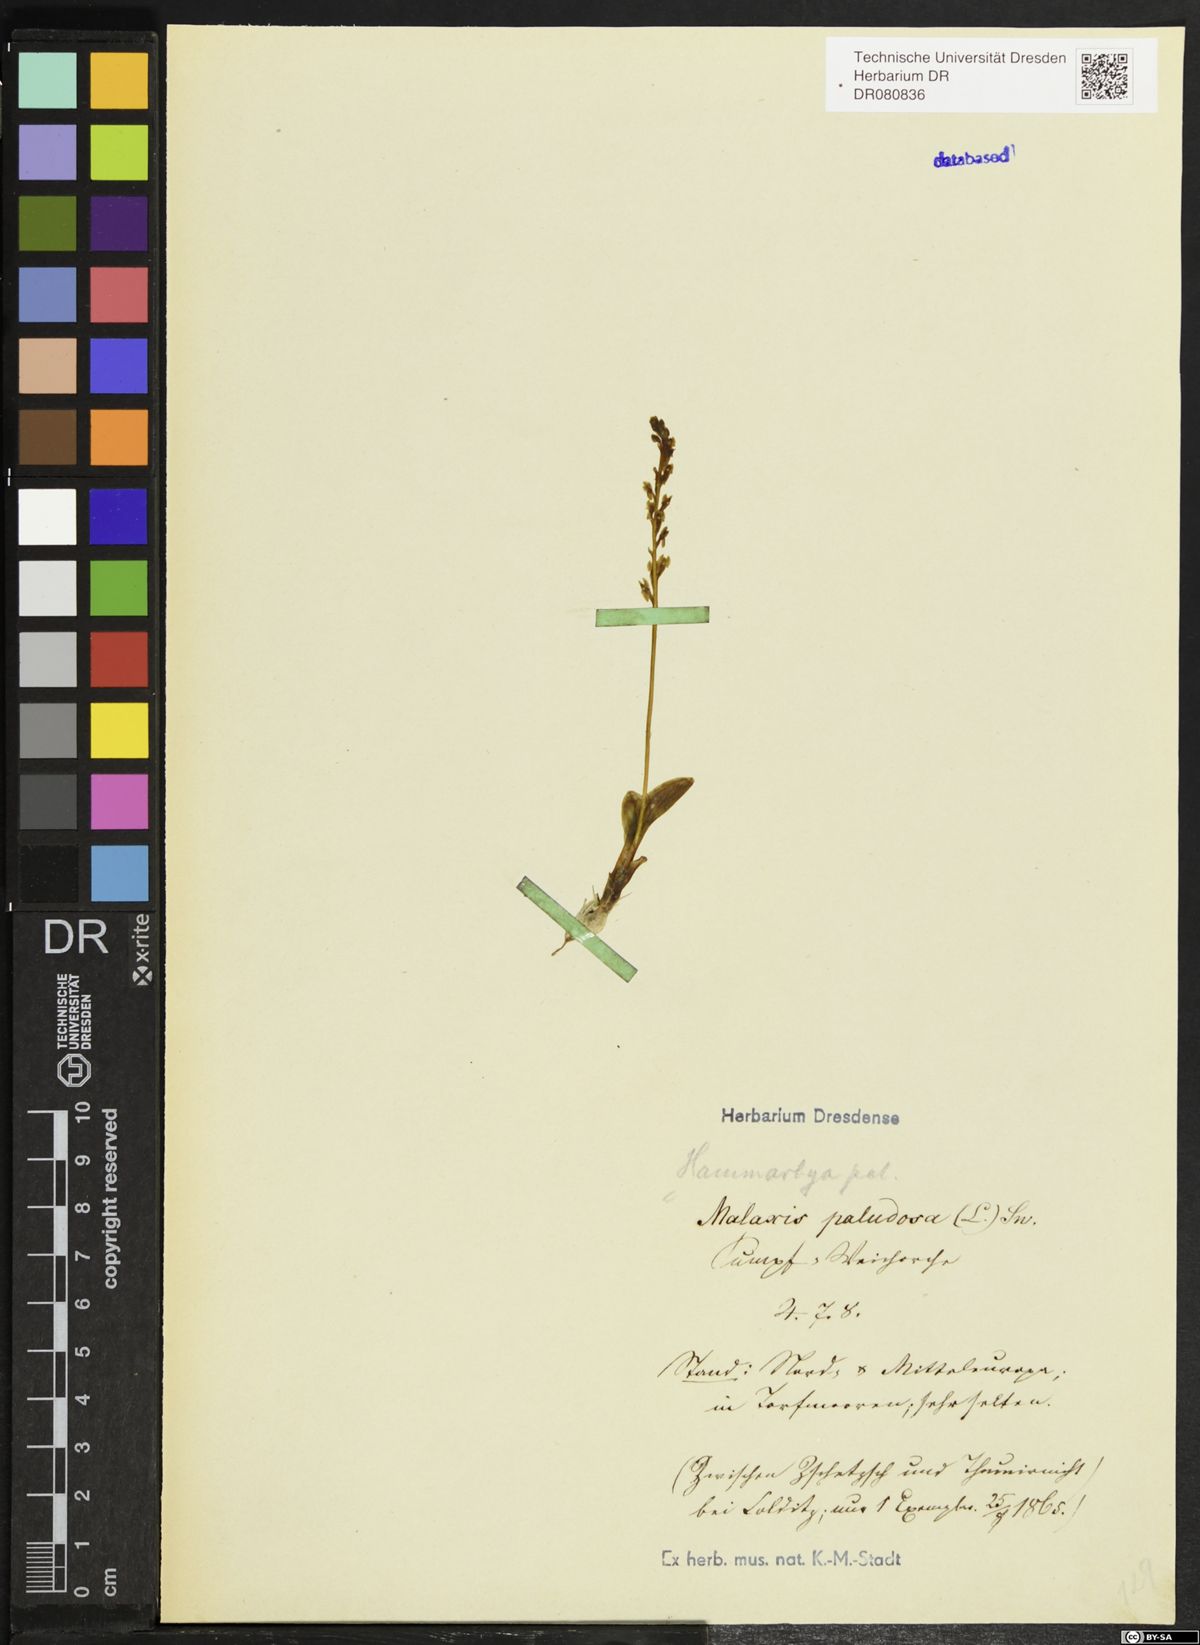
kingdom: Plantae
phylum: Tracheophyta
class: Liliopsida
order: Asparagales
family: Orchidaceae
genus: Hammarbya
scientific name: Hammarbya paludosa
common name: Bog orchid
